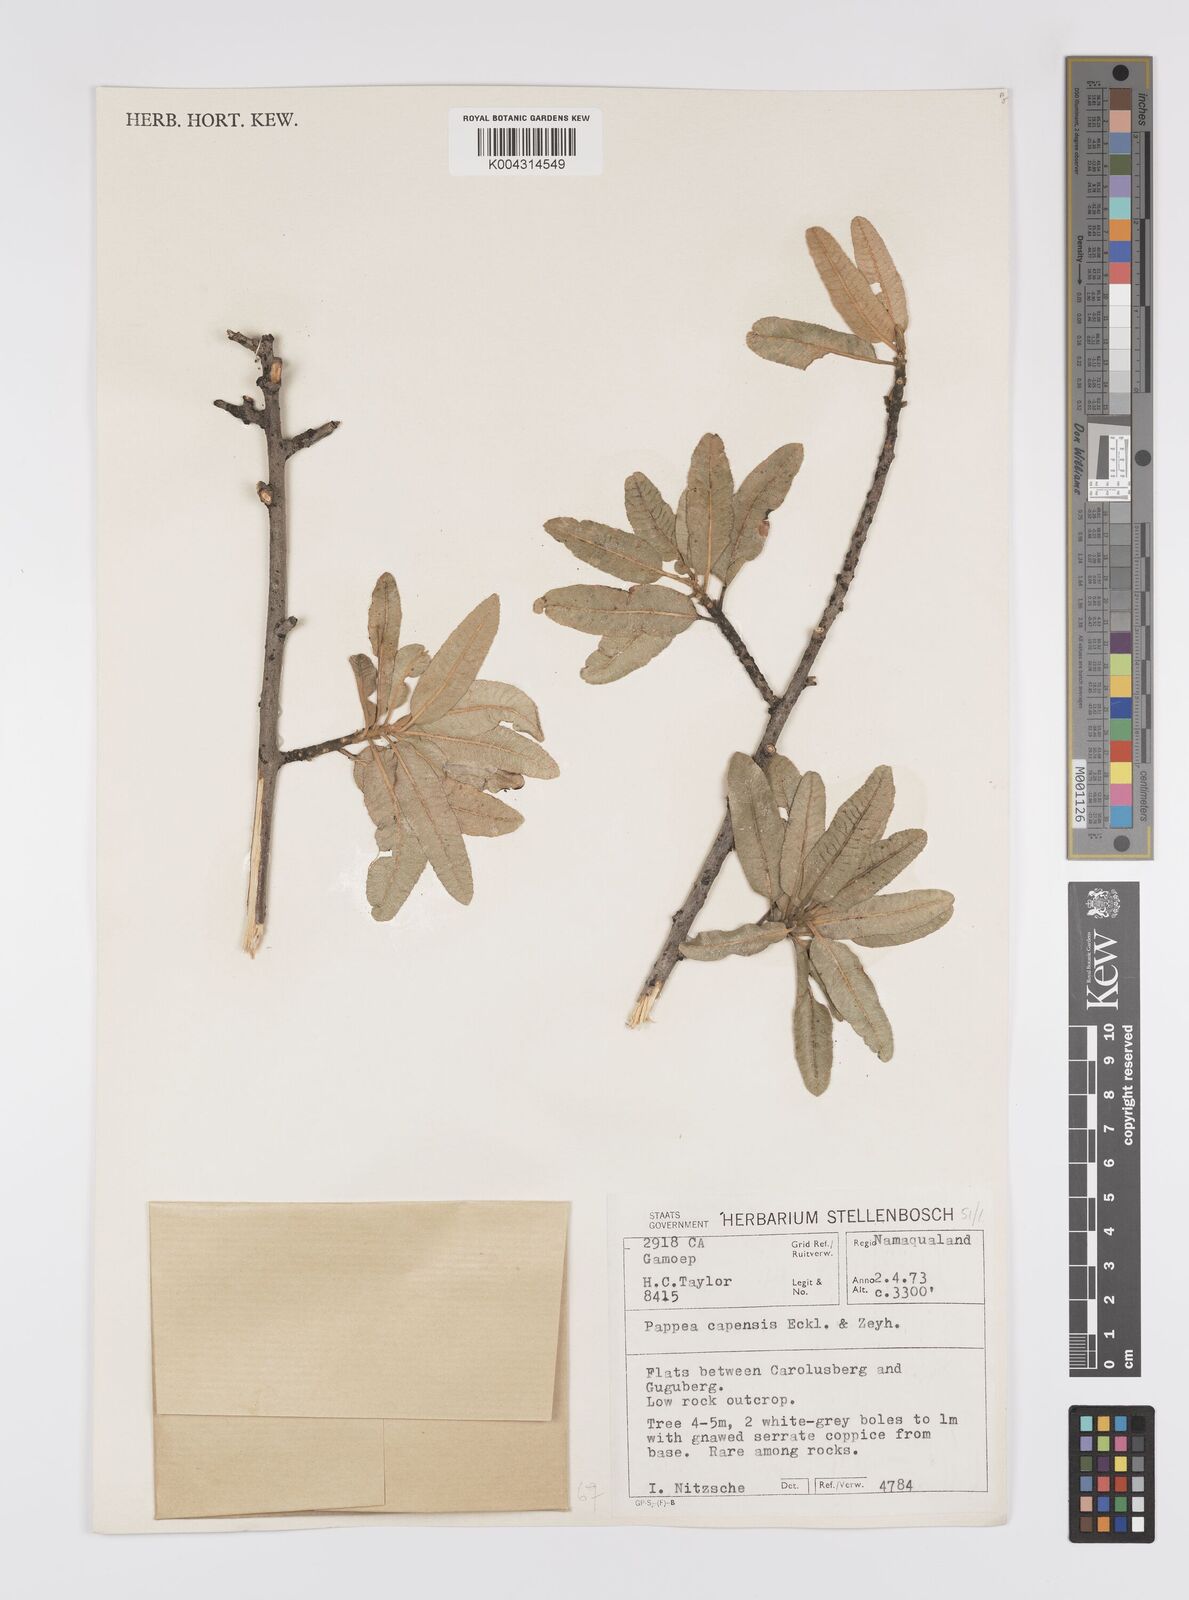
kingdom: Plantae
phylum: Tracheophyta
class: Magnoliopsida
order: Sapindales
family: Sapindaceae
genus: Pappea
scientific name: Pappea
